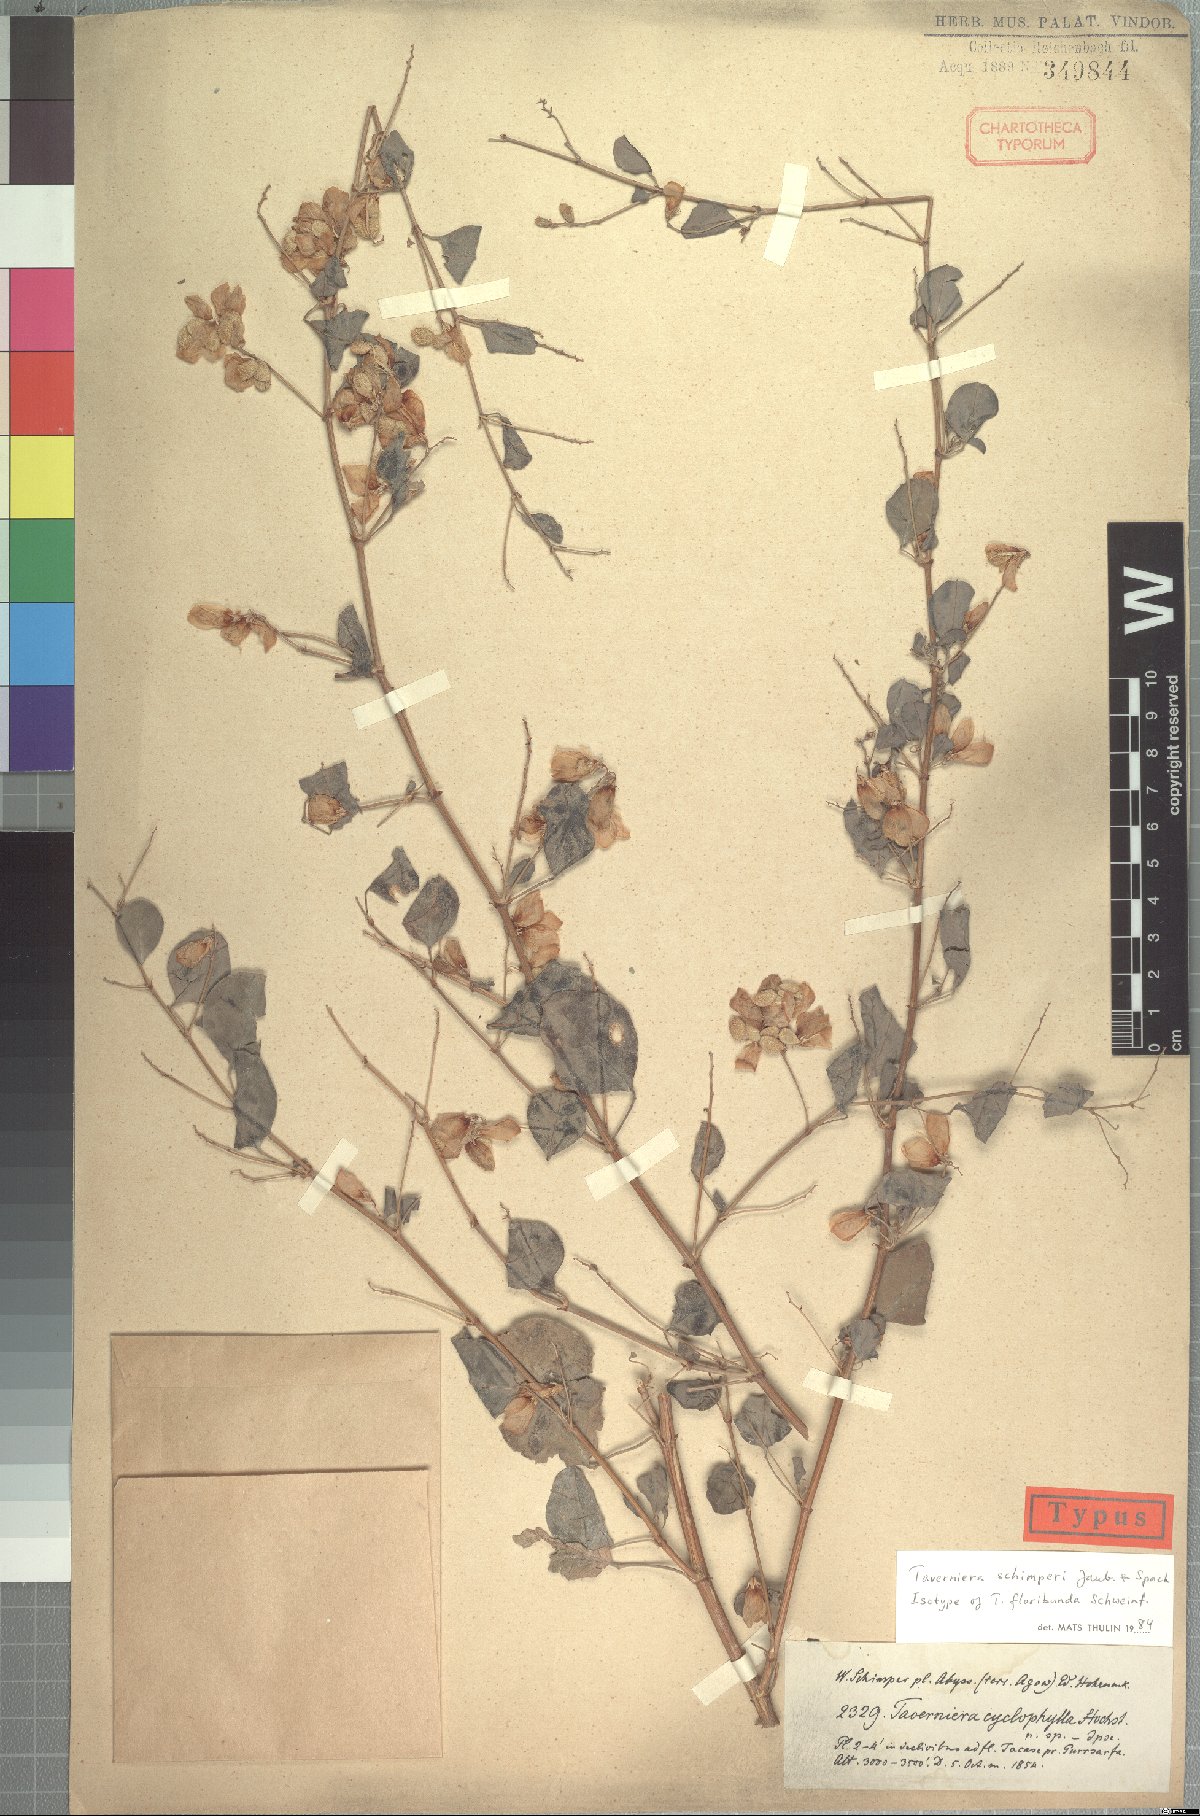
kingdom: Plantae
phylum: Tracheophyta
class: Magnoliopsida
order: Fabales
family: Fabaceae
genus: Taverniera
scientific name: Taverniera schimperi
